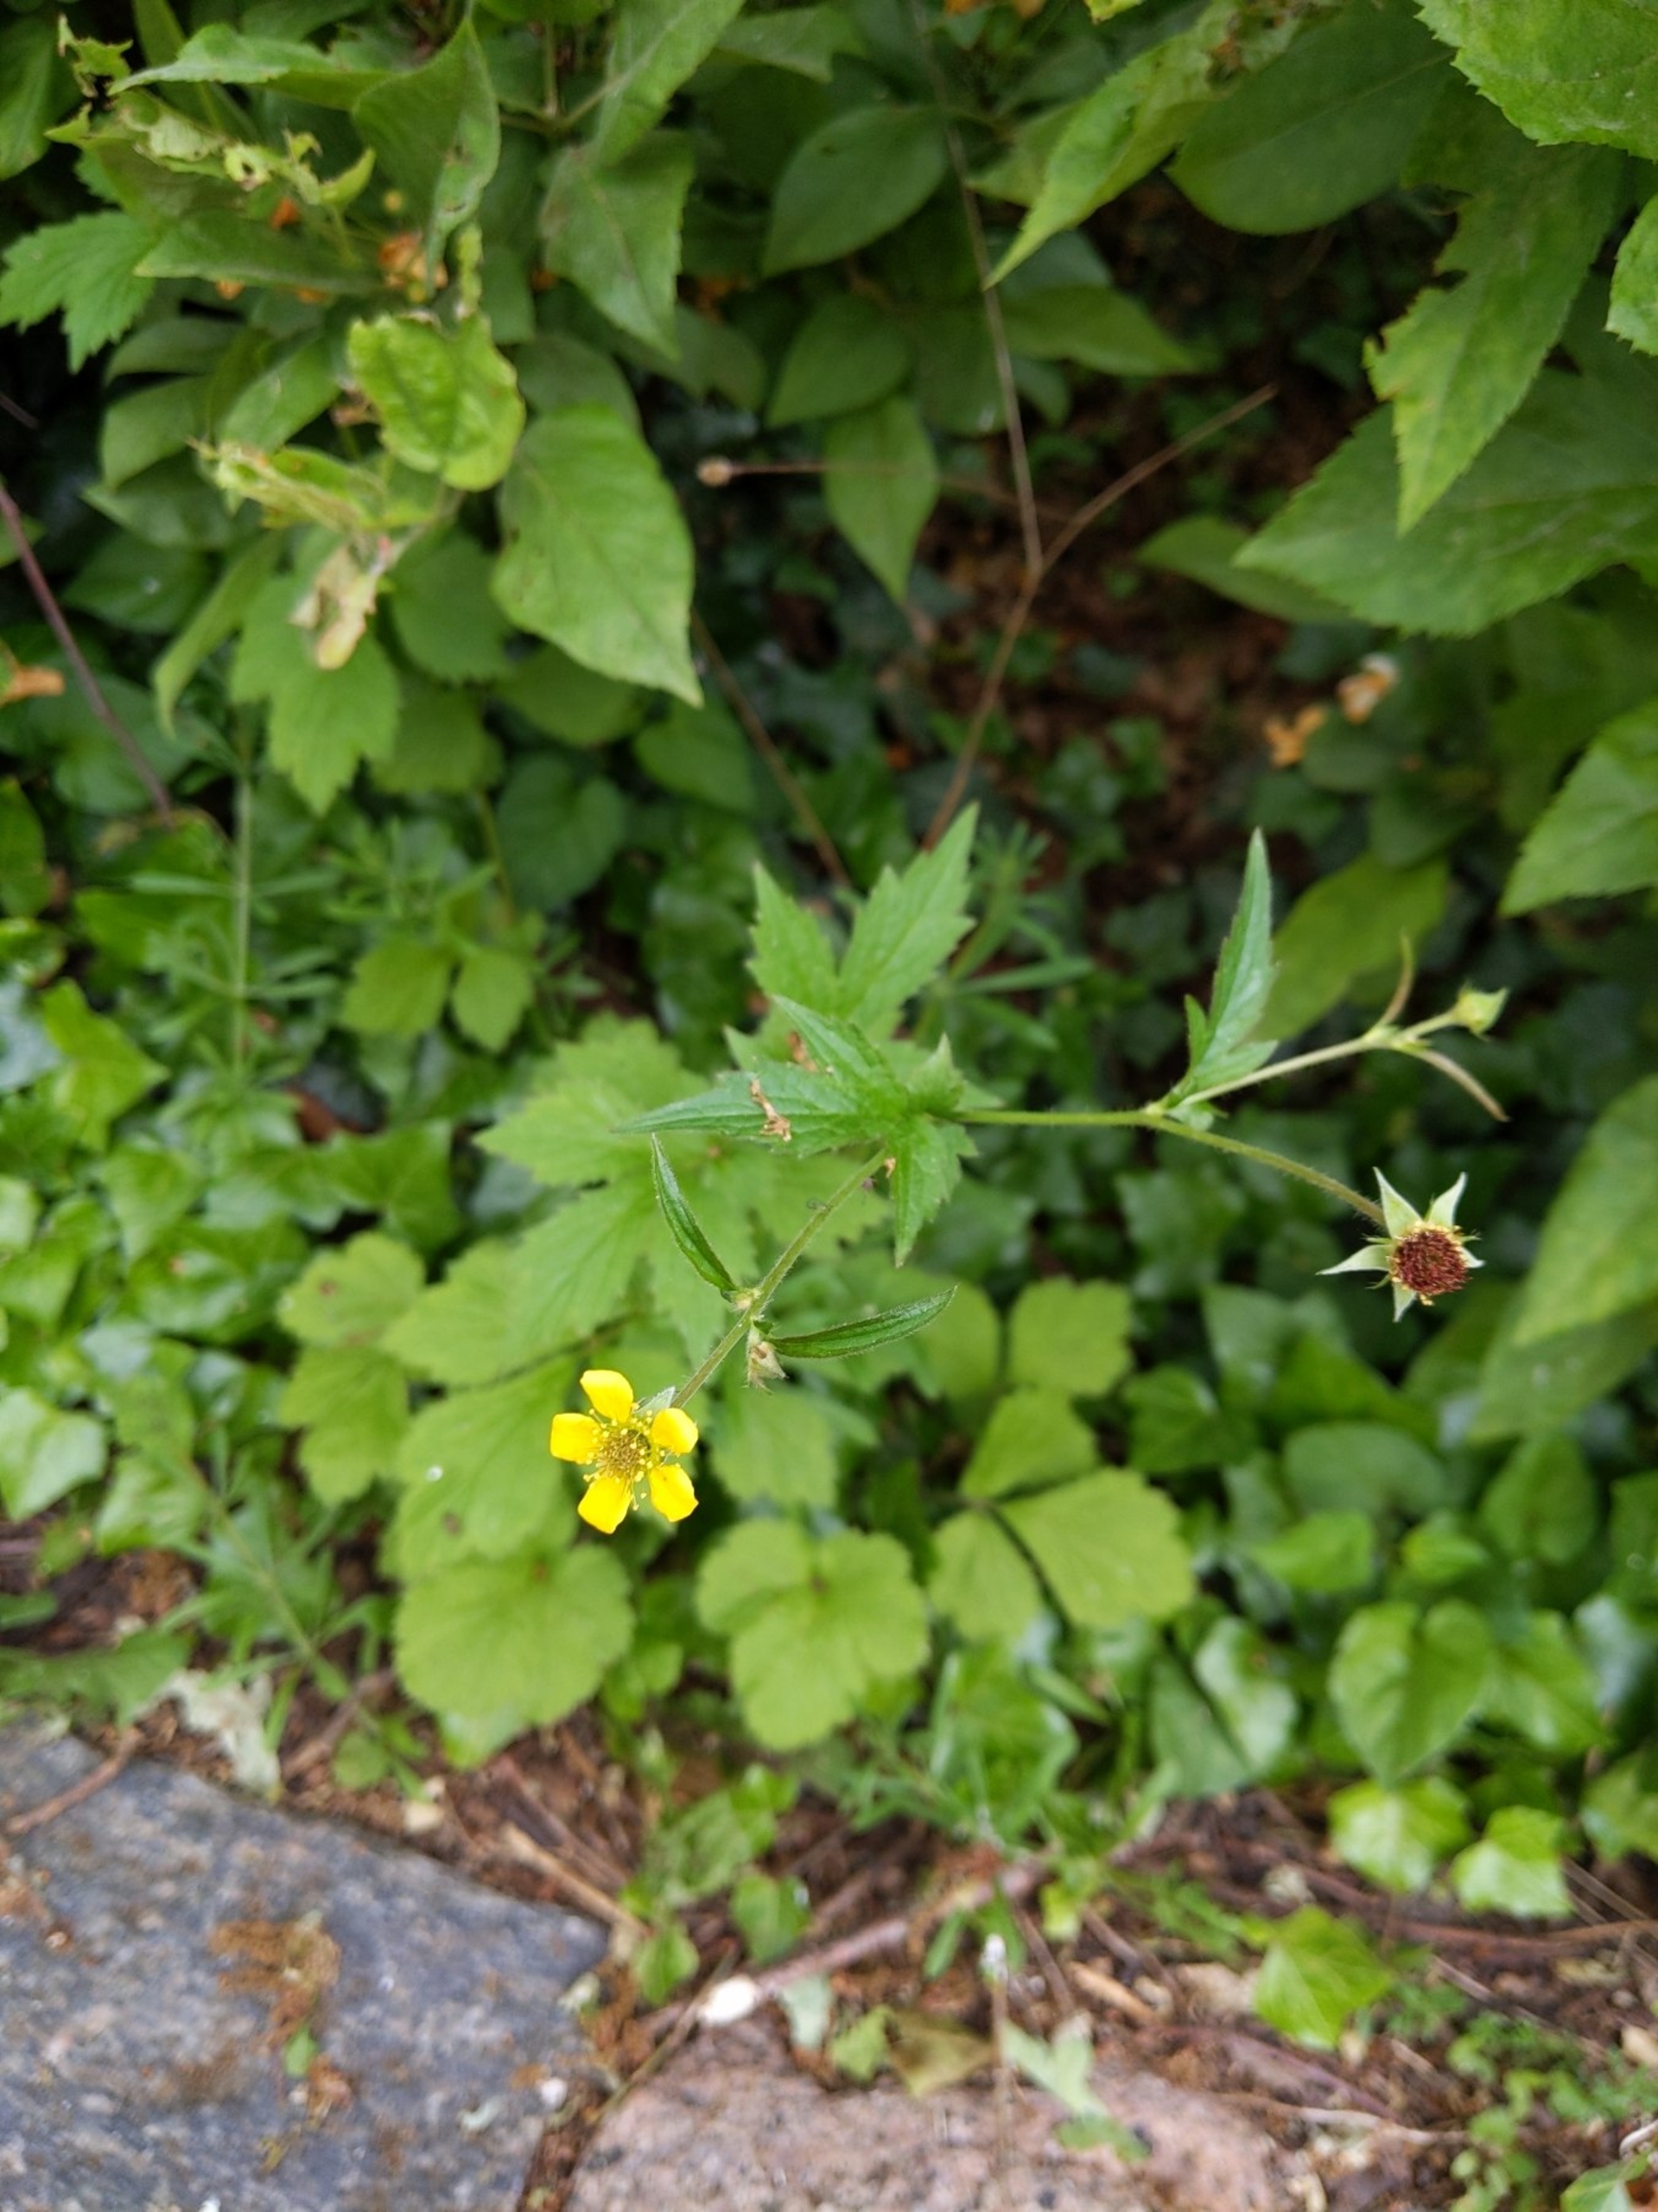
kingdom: Plantae
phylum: Tracheophyta
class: Magnoliopsida
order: Rosales
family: Rosaceae
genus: Geum
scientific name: Geum urbanum
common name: Feber-nellikerod
